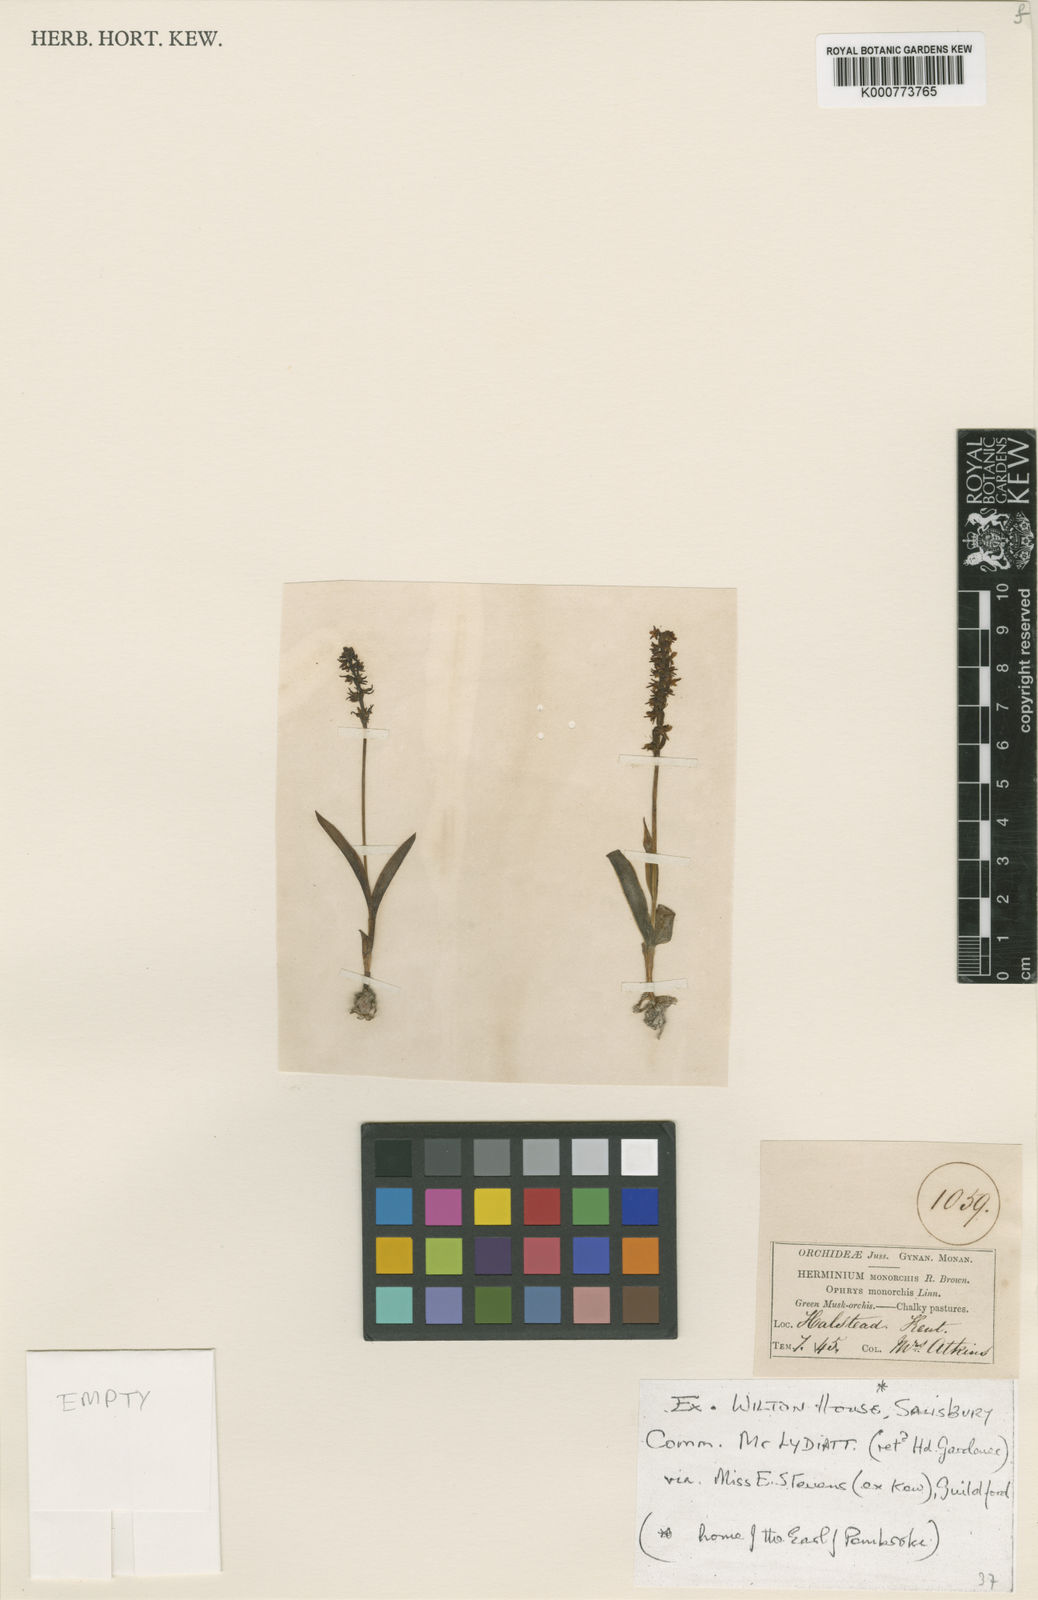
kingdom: Plantae
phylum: Tracheophyta
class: Liliopsida
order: Asparagales
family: Orchidaceae
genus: Herminium
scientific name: Herminium monorchis
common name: Musk orchid
